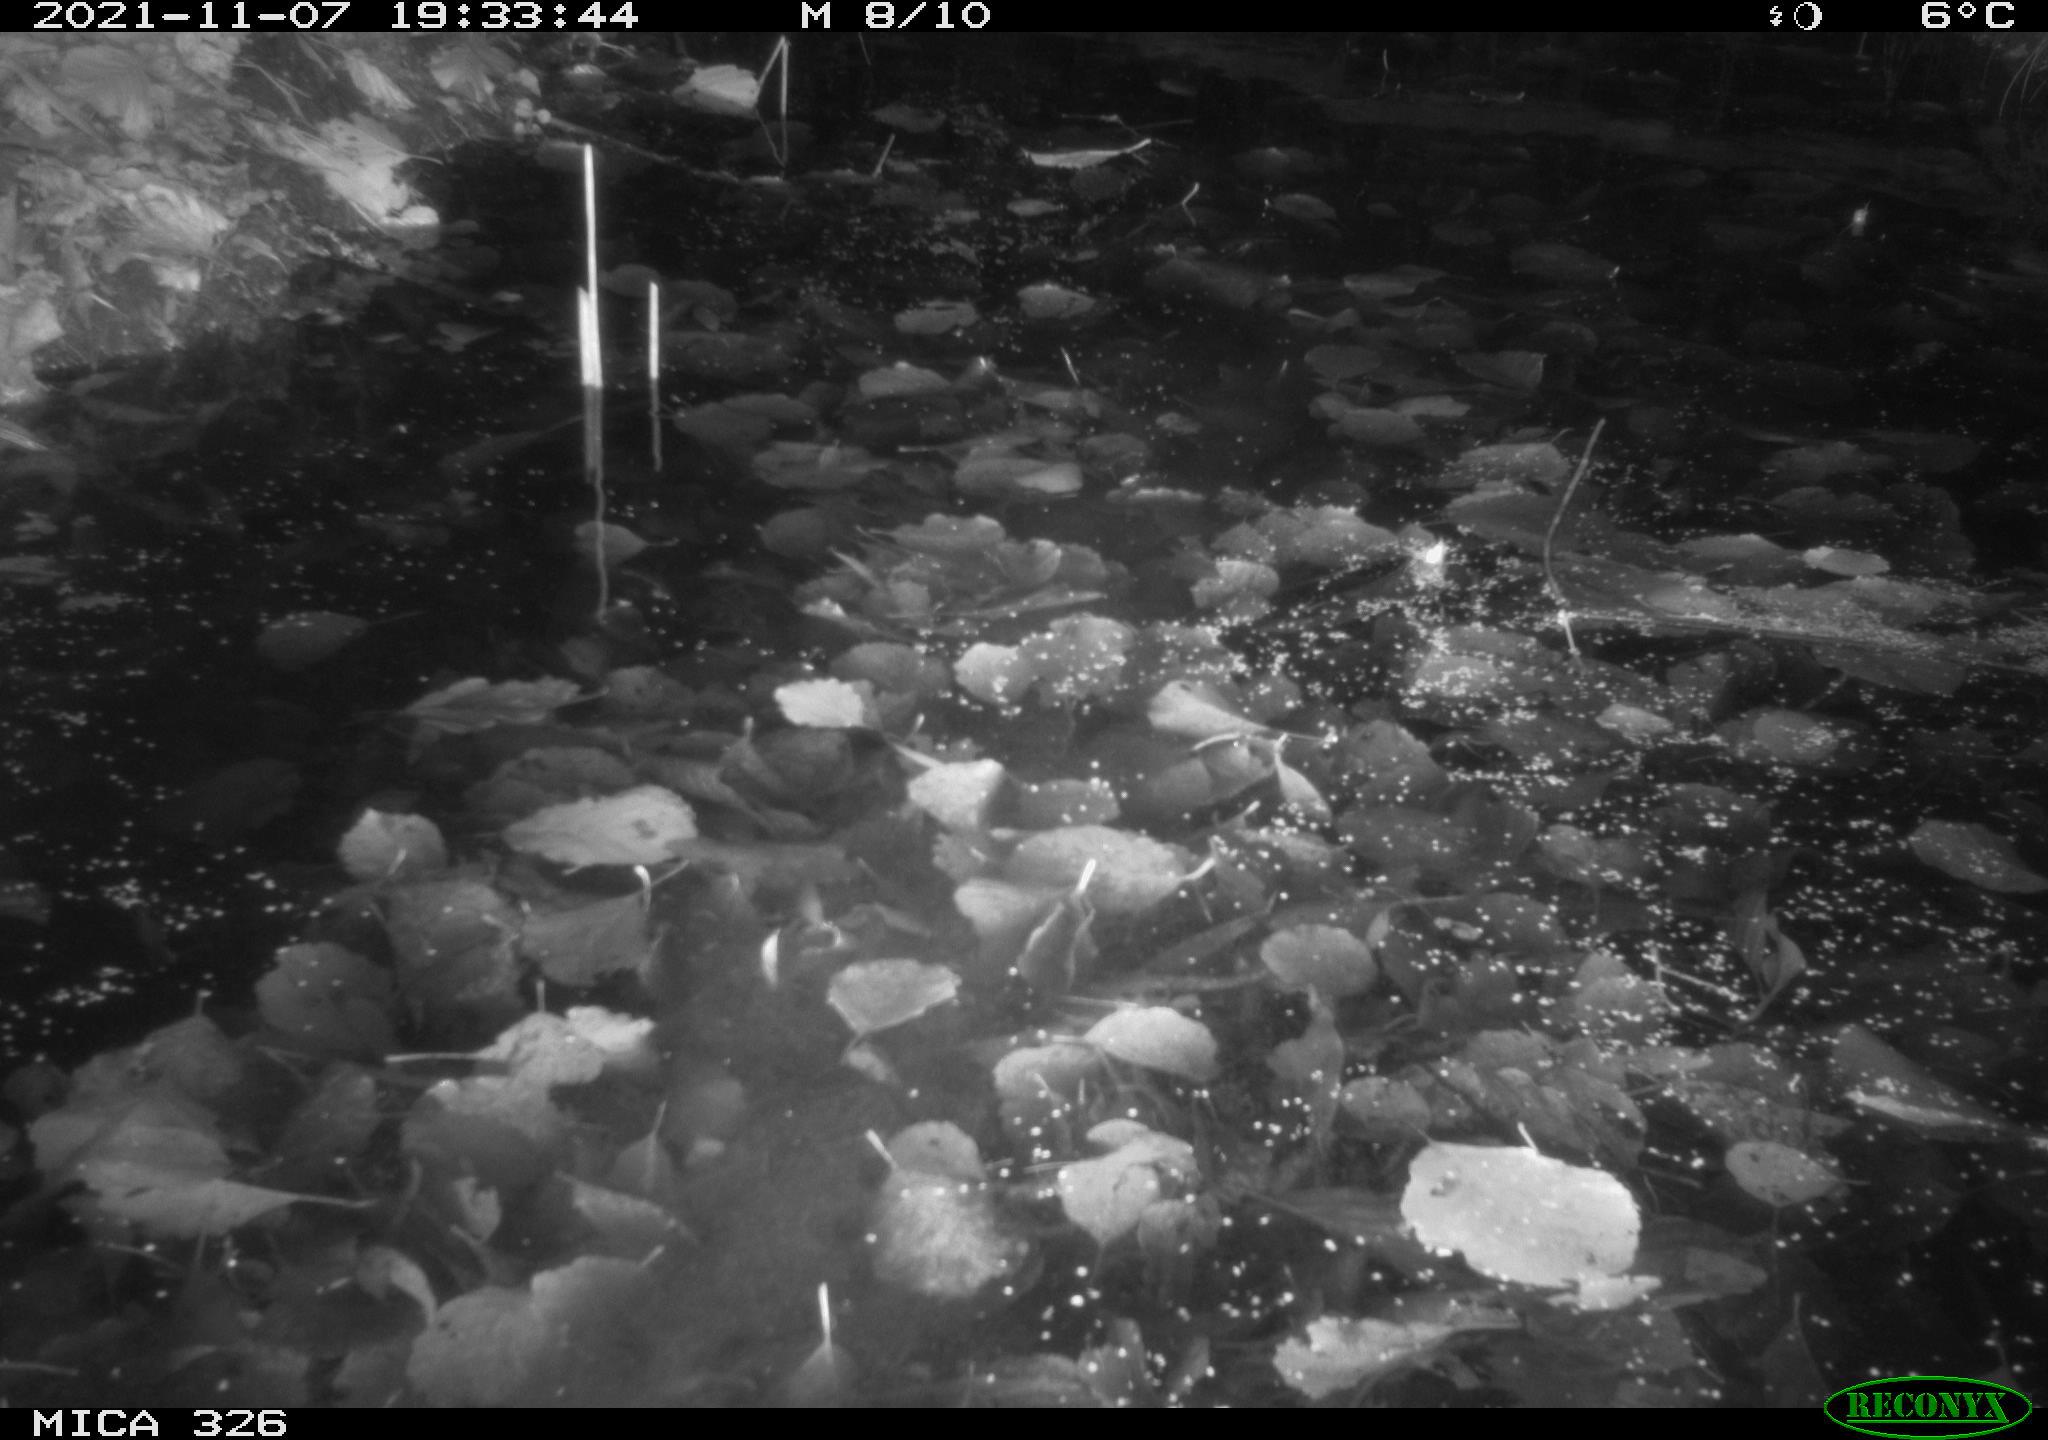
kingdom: Animalia
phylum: Chordata
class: Mammalia
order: Rodentia
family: Myocastoridae
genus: Myocastor
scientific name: Myocastor coypus
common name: Coypu
